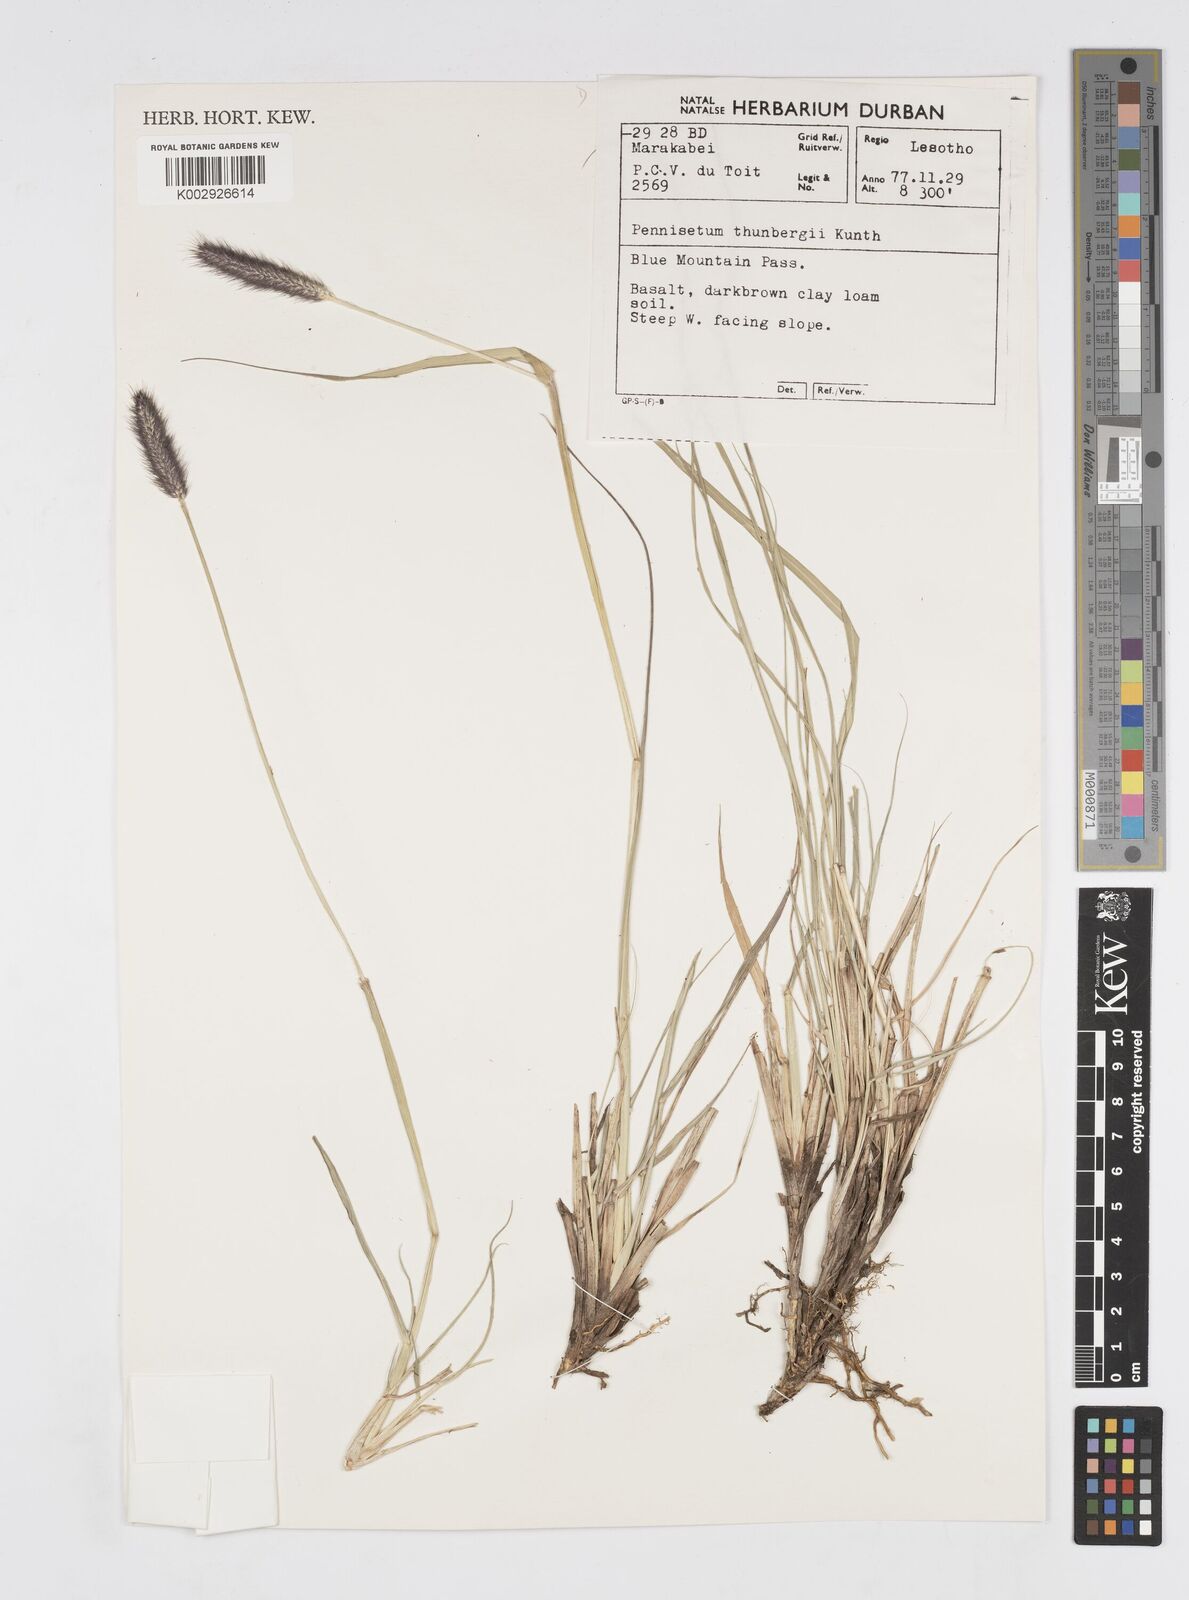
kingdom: Plantae
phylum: Tracheophyta
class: Liliopsida
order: Poales
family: Poaceae
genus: Cenchrus
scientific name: Cenchrus geniculatus
